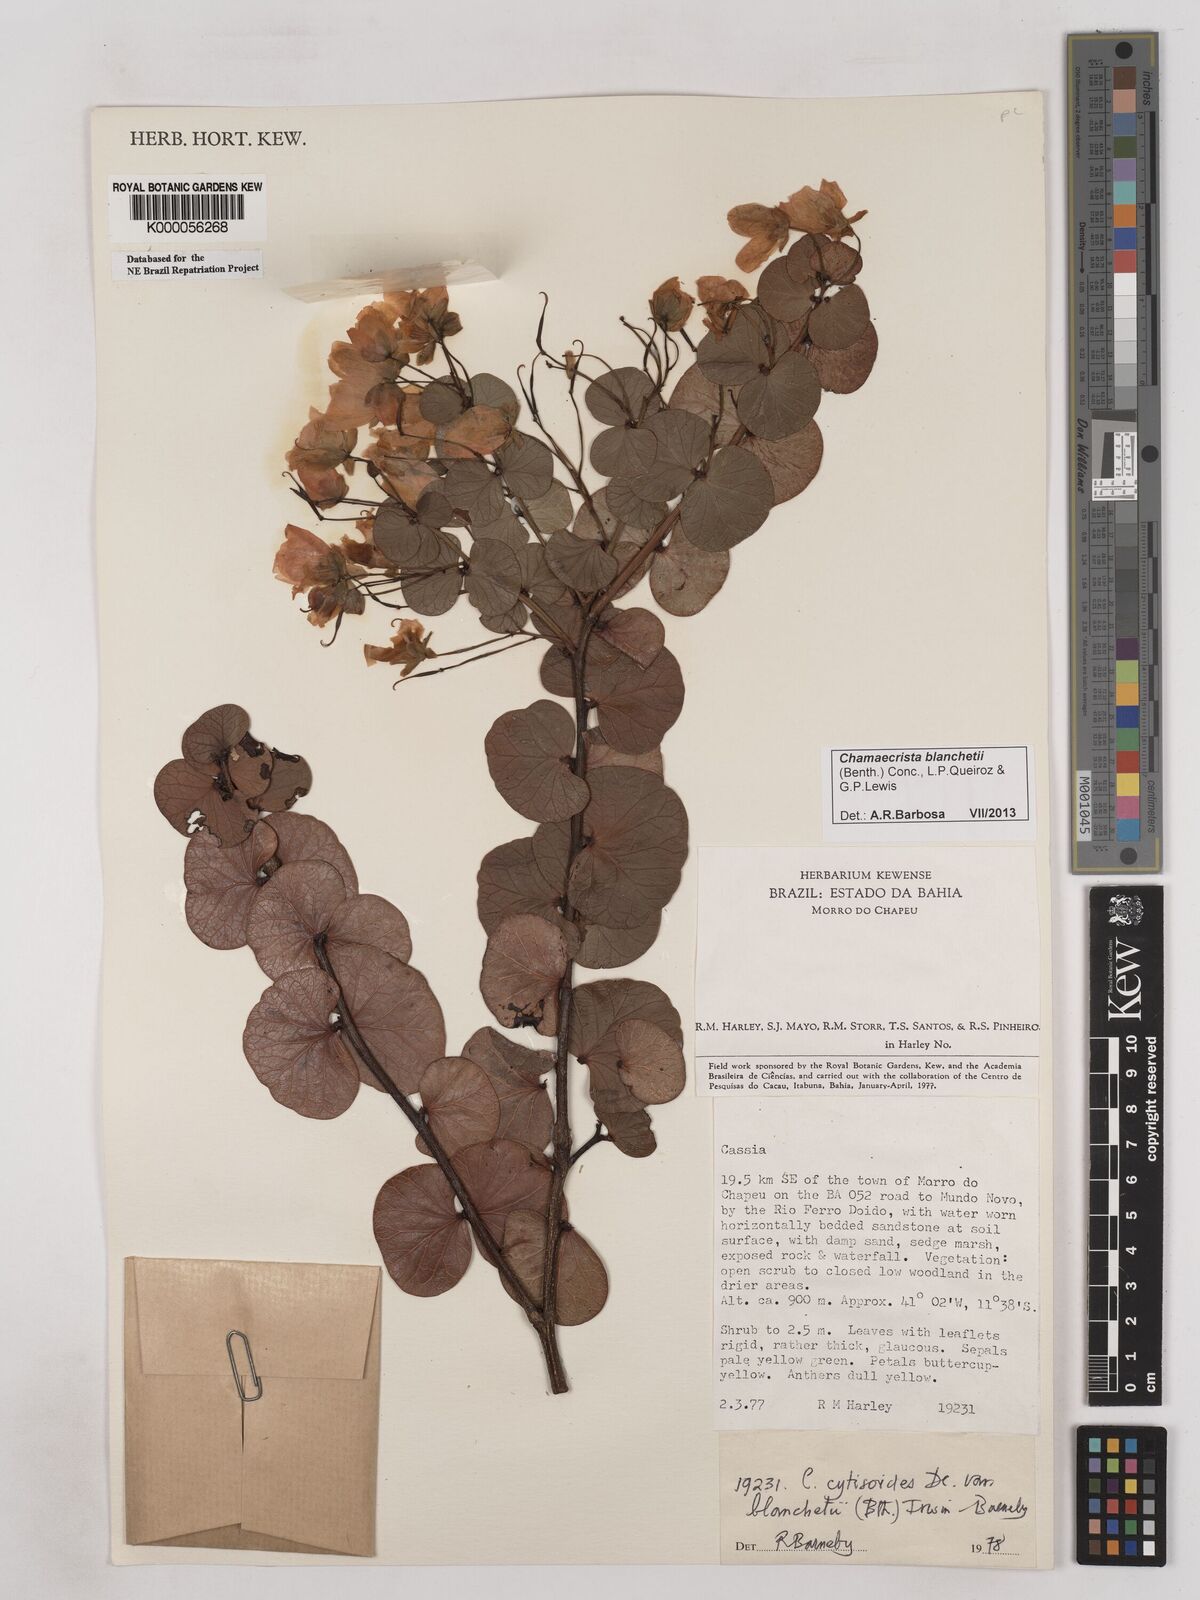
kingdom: Plantae
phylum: Tracheophyta
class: Magnoliopsida
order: Fabales
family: Fabaceae
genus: Chamaecrista
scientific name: Chamaecrista cytisoides
